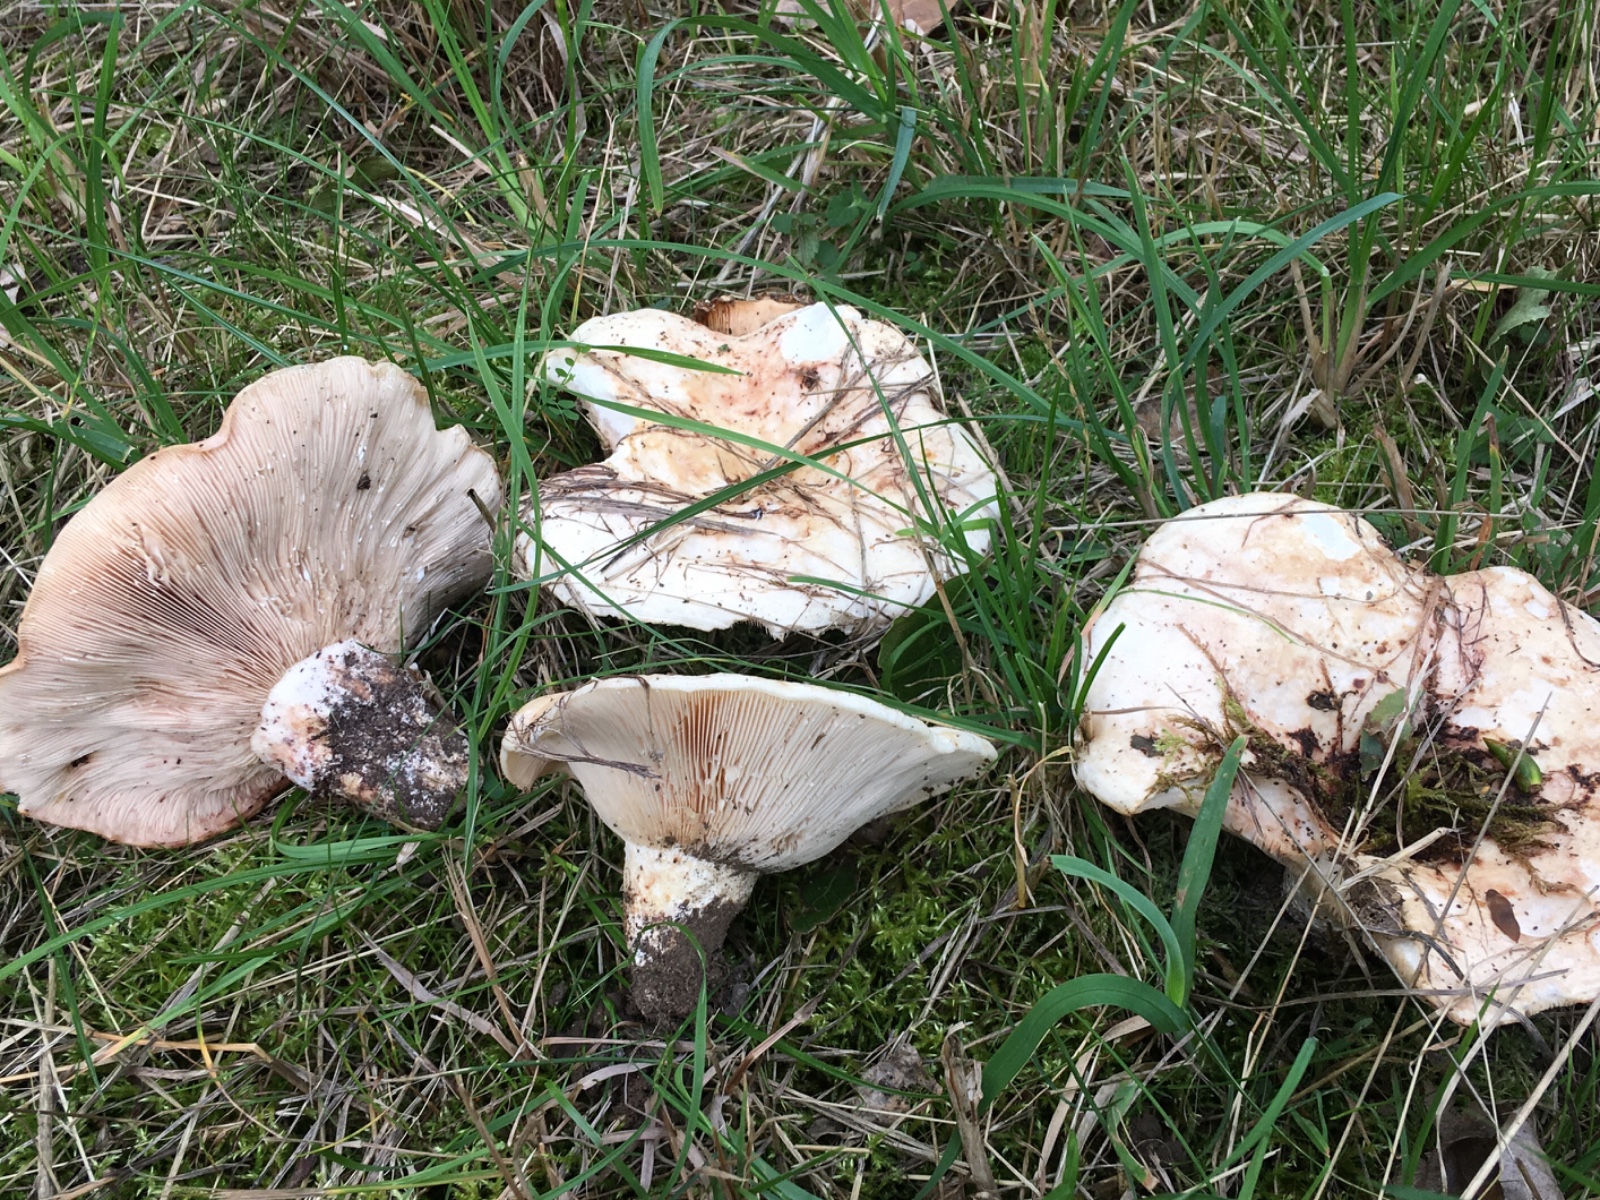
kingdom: Fungi
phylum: Basidiomycota
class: Agaricomycetes
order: Russulales
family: Russulaceae
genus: Lactarius
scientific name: Lactarius controversus
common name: rosabladet mælkehat
